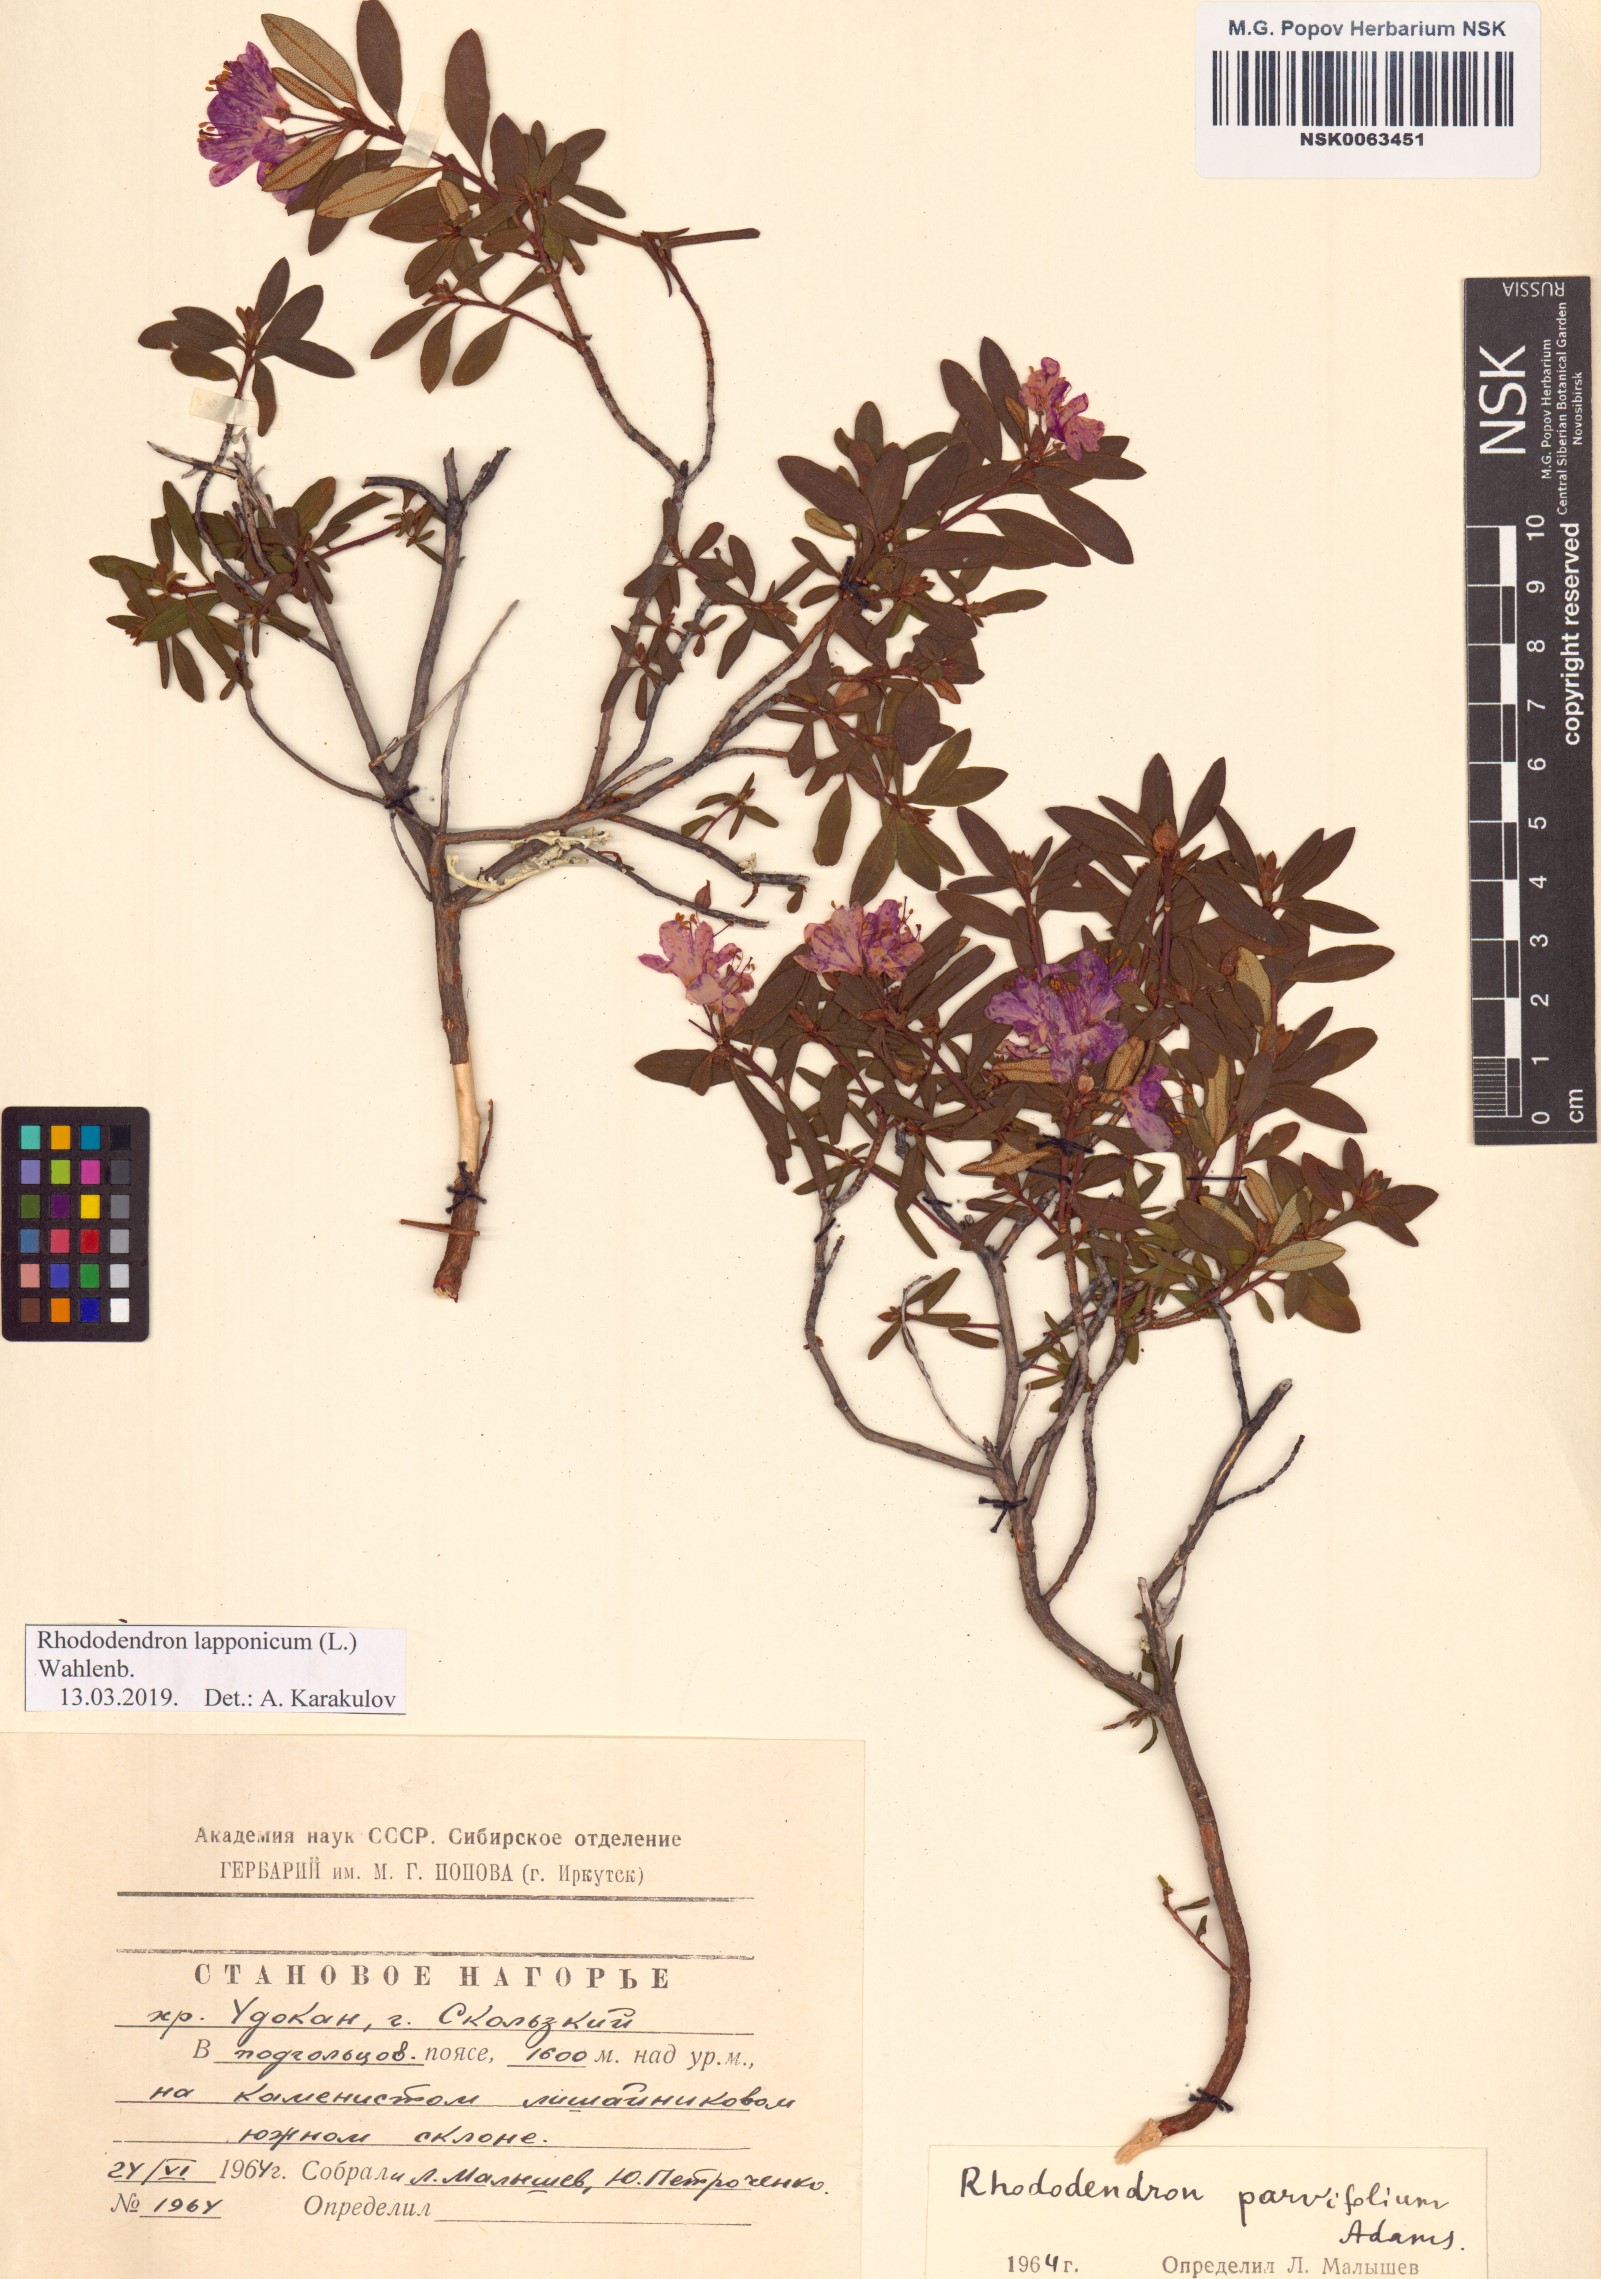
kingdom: Plantae
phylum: Tracheophyta
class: Magnoliopsida
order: Ericales
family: Ericaceae
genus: Rhododendron
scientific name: Rhododendron lapponicum
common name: Lapland rhododendron
